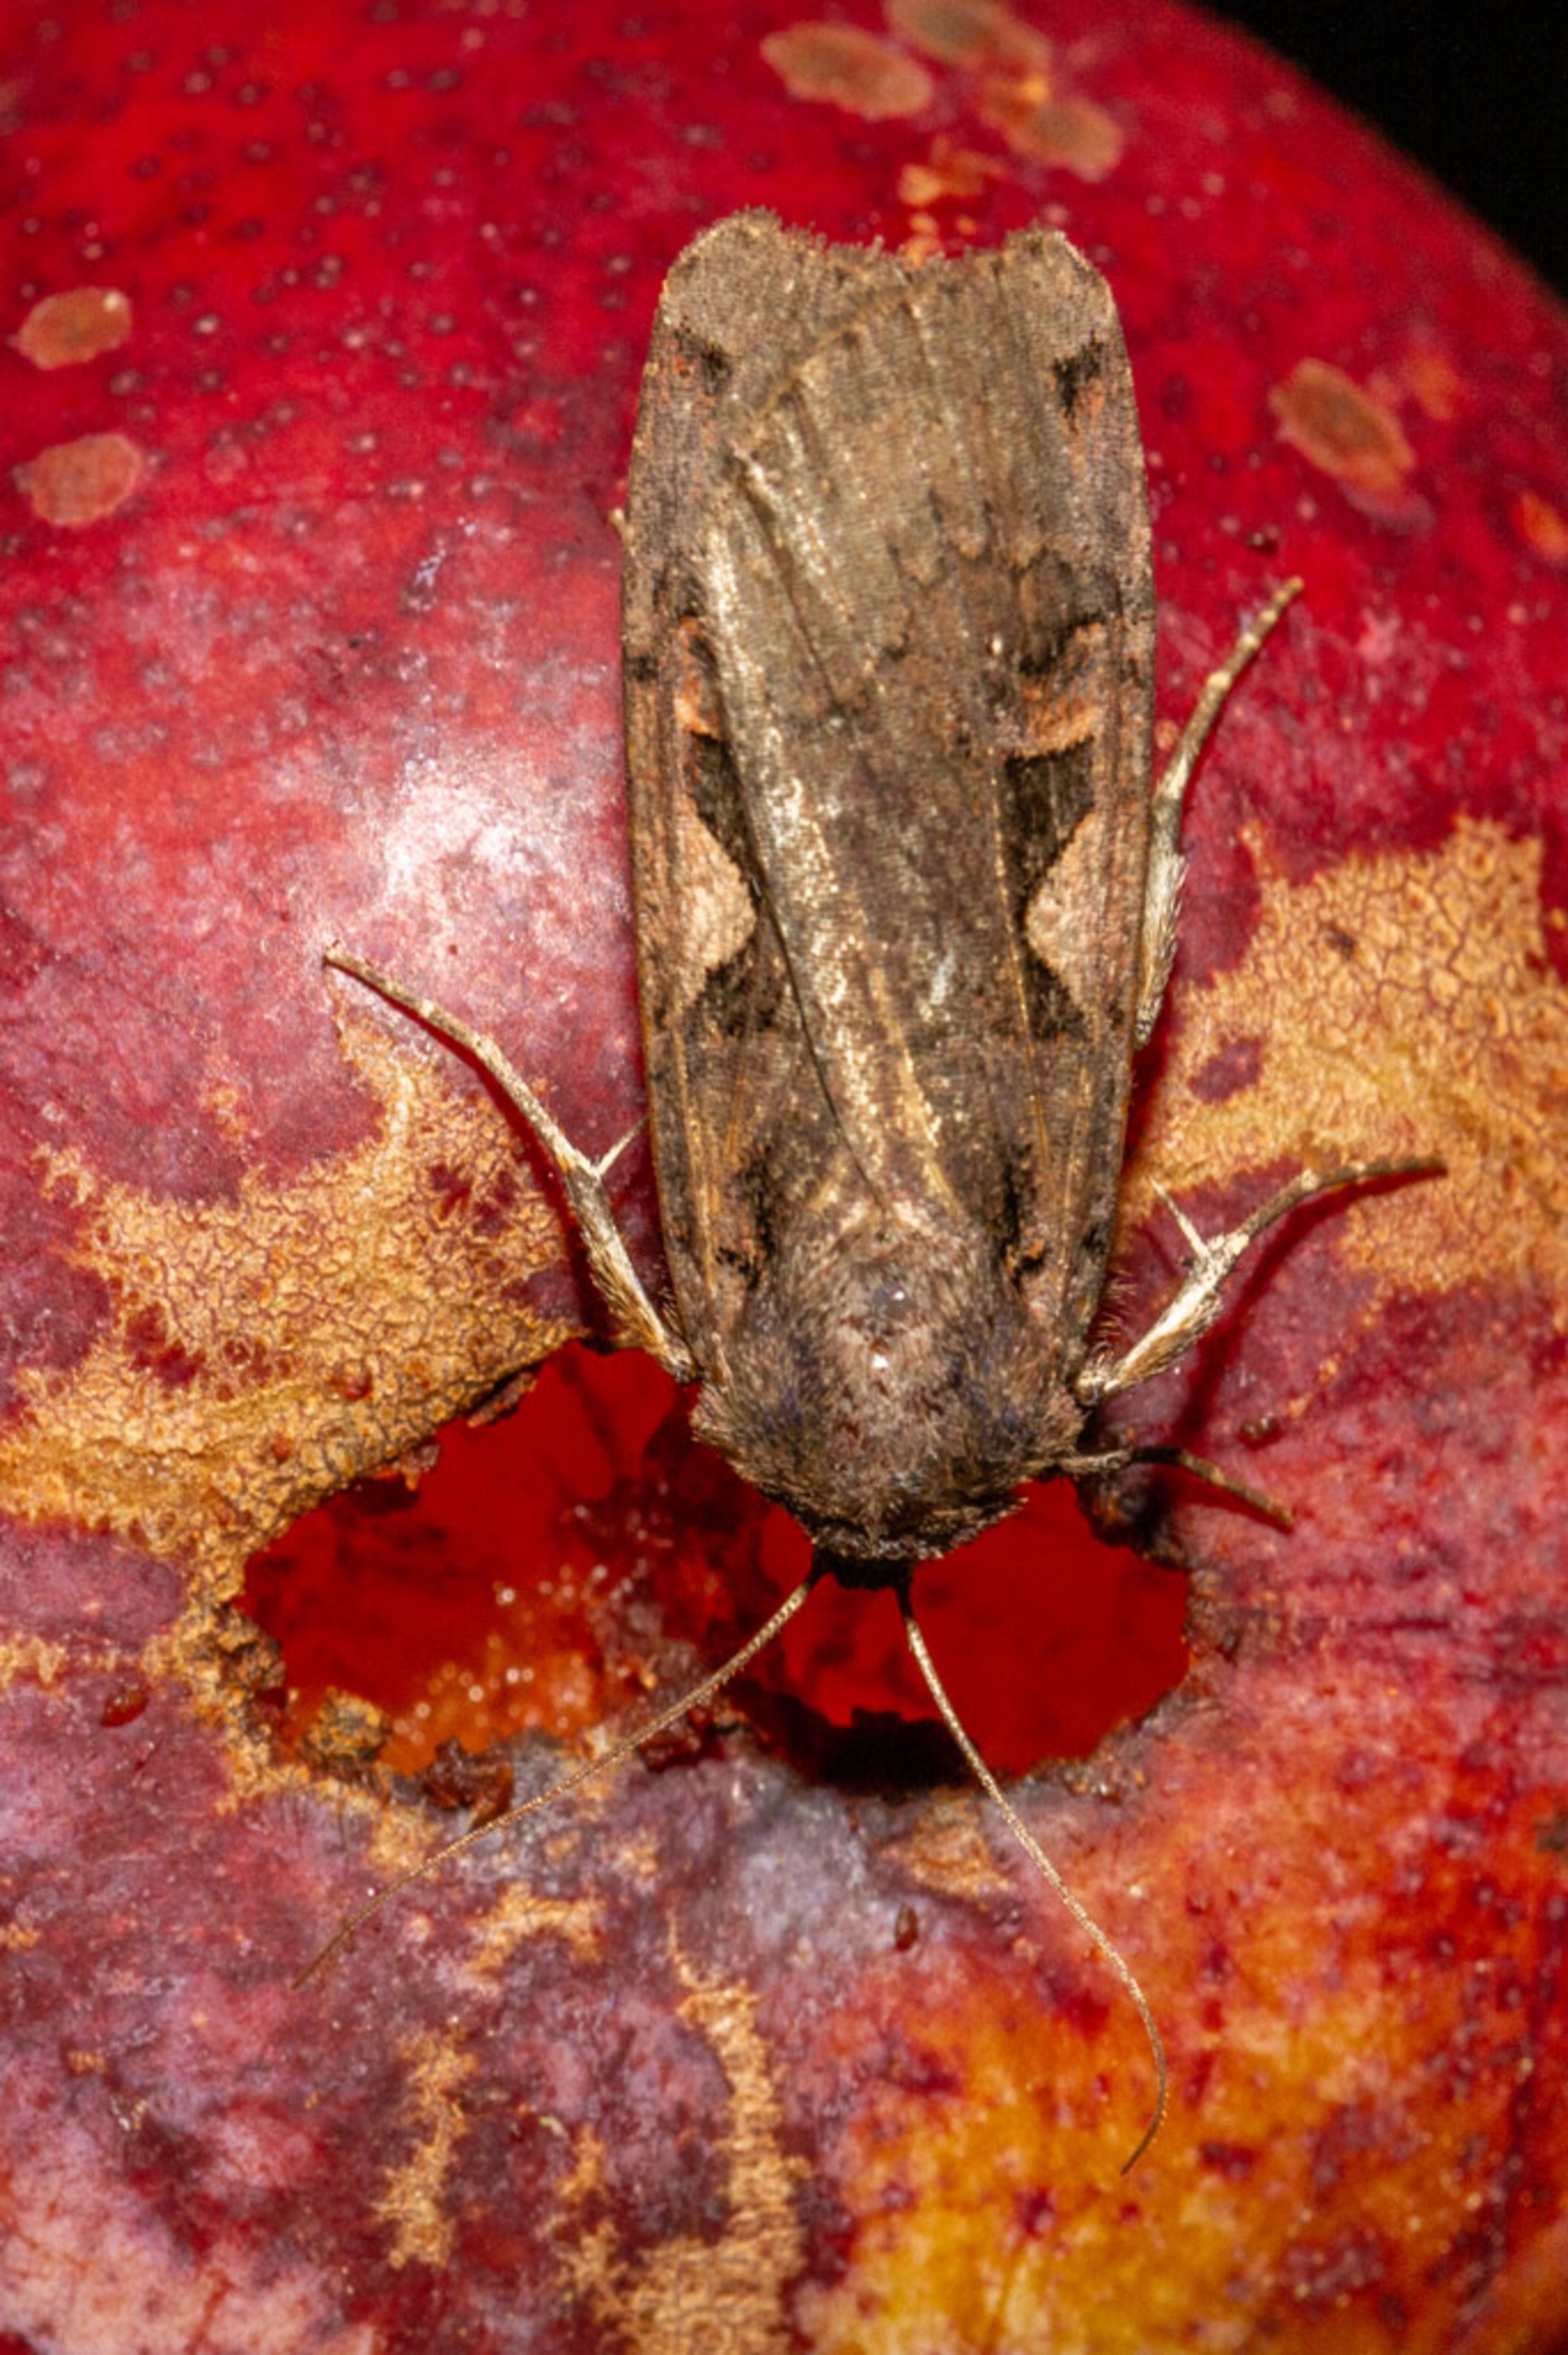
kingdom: Animalia
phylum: Arthropoda
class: Insecta
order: Lepidoptera
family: Noctuidae
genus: Xestia
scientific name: Xestia c-nigrum
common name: Det sorte c
